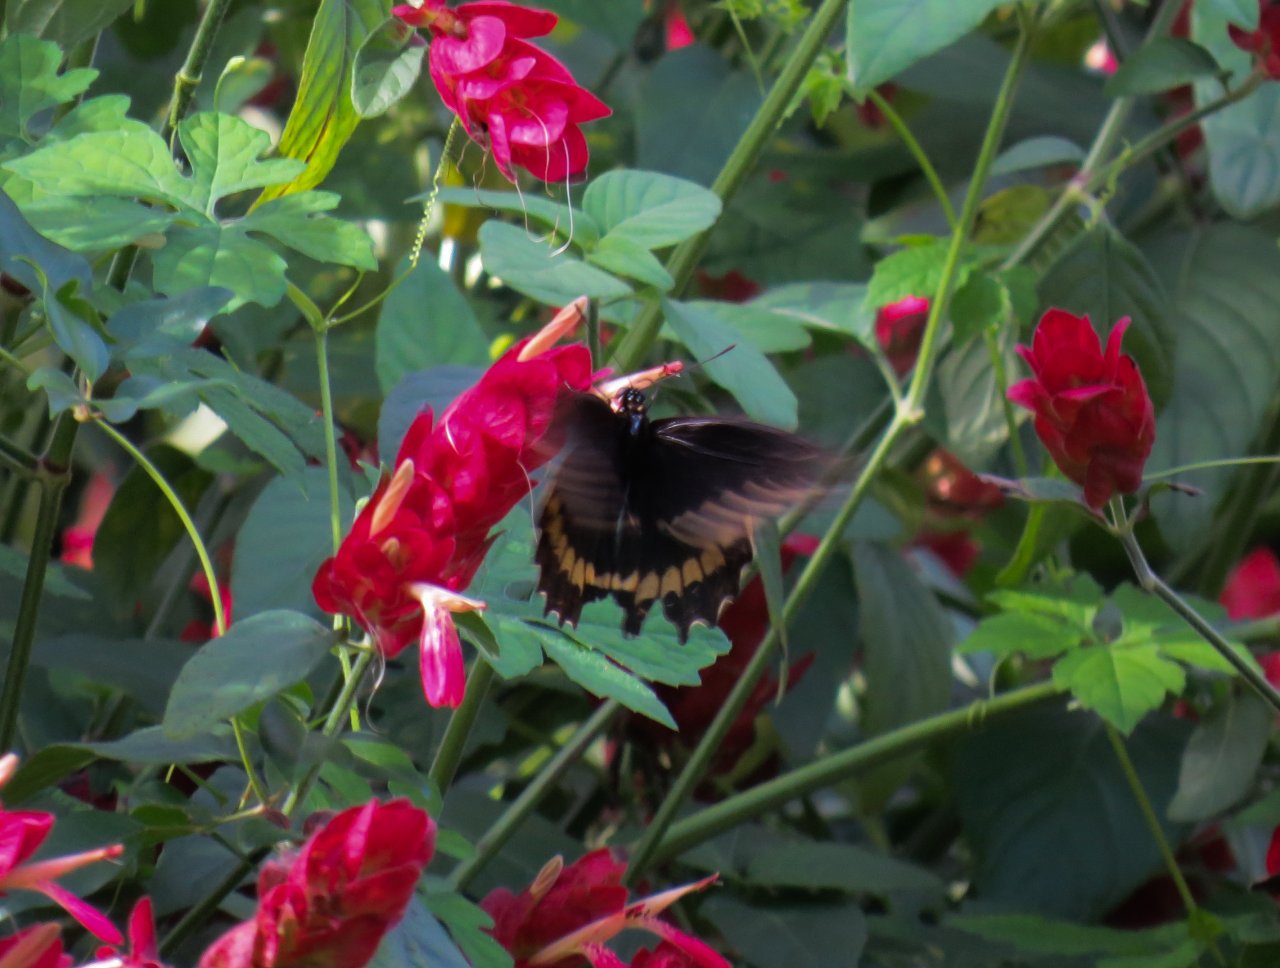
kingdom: Animalia
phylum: Arthropoda
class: Insecta
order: Lepidoptera
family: Papilionidae
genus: Battus
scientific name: Battus polydamas
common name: Polydamas Swallowtail
